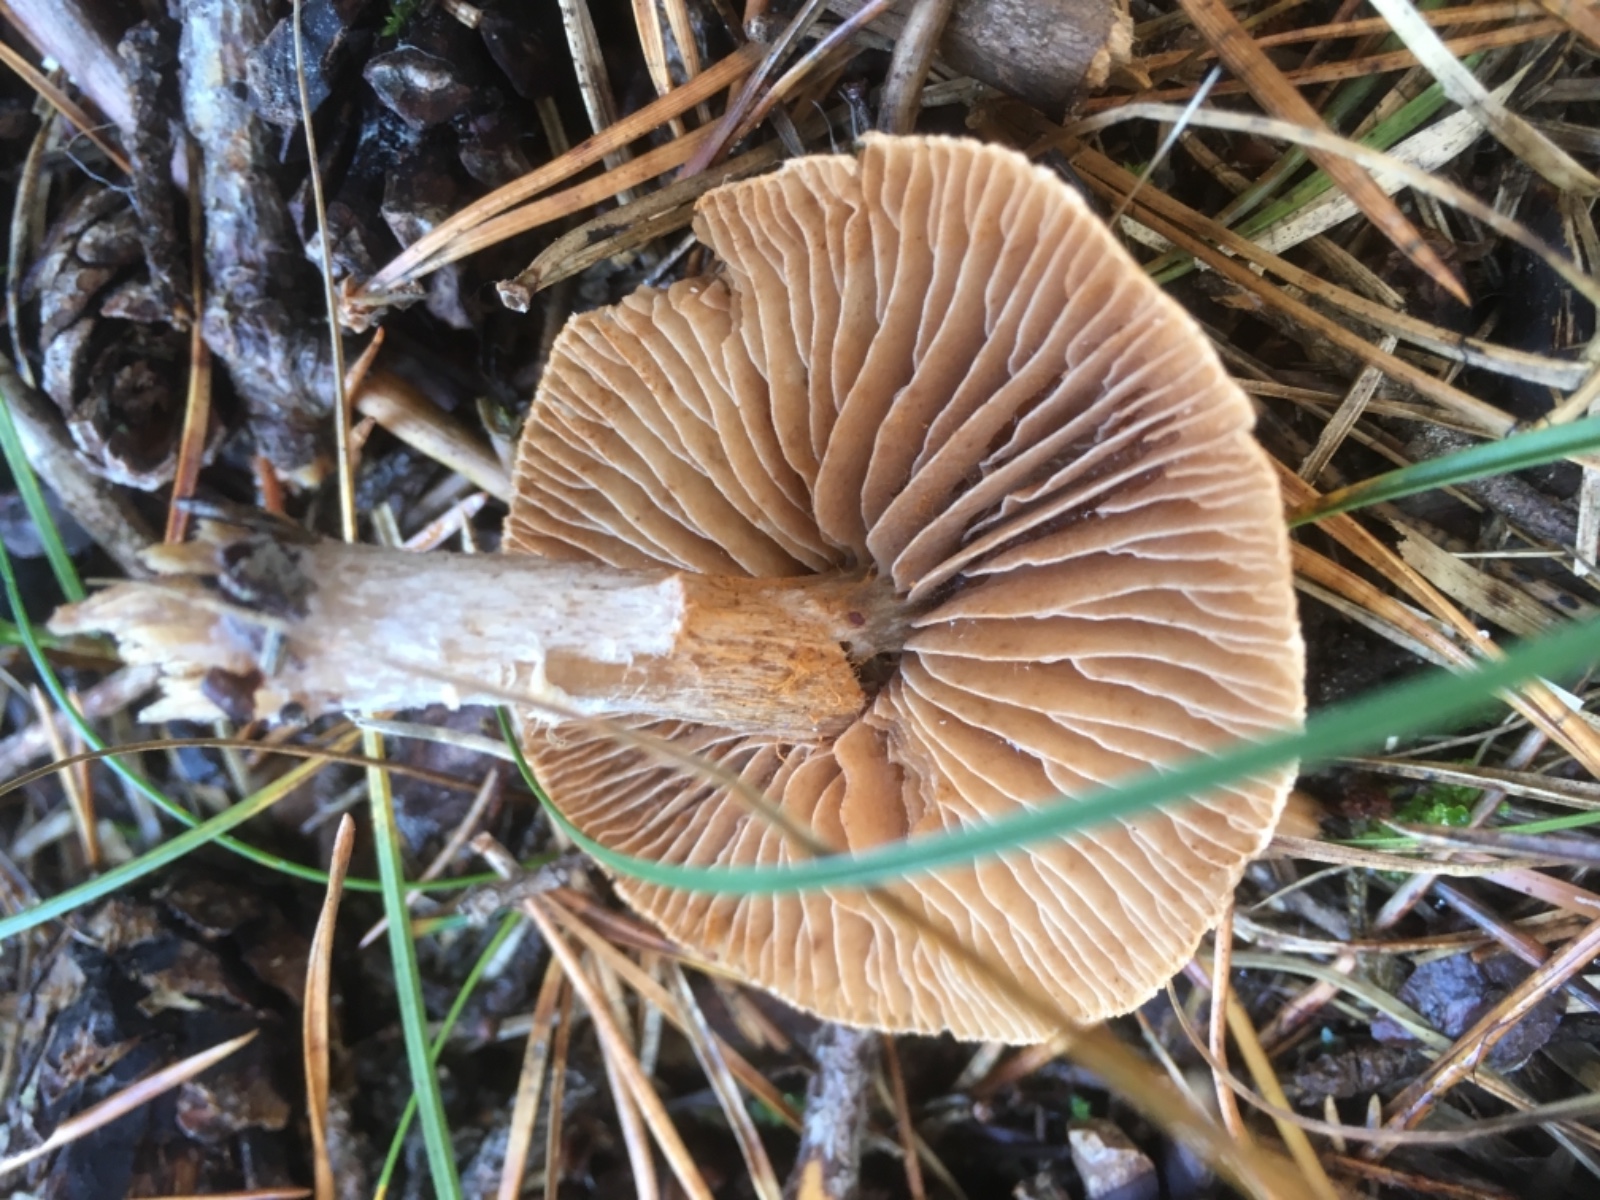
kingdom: Fungi
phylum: Basidiomycota
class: Agaricomycetes
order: Agaricales
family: Cortinariaceae
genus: Cortinarius
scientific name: Cortinarius
